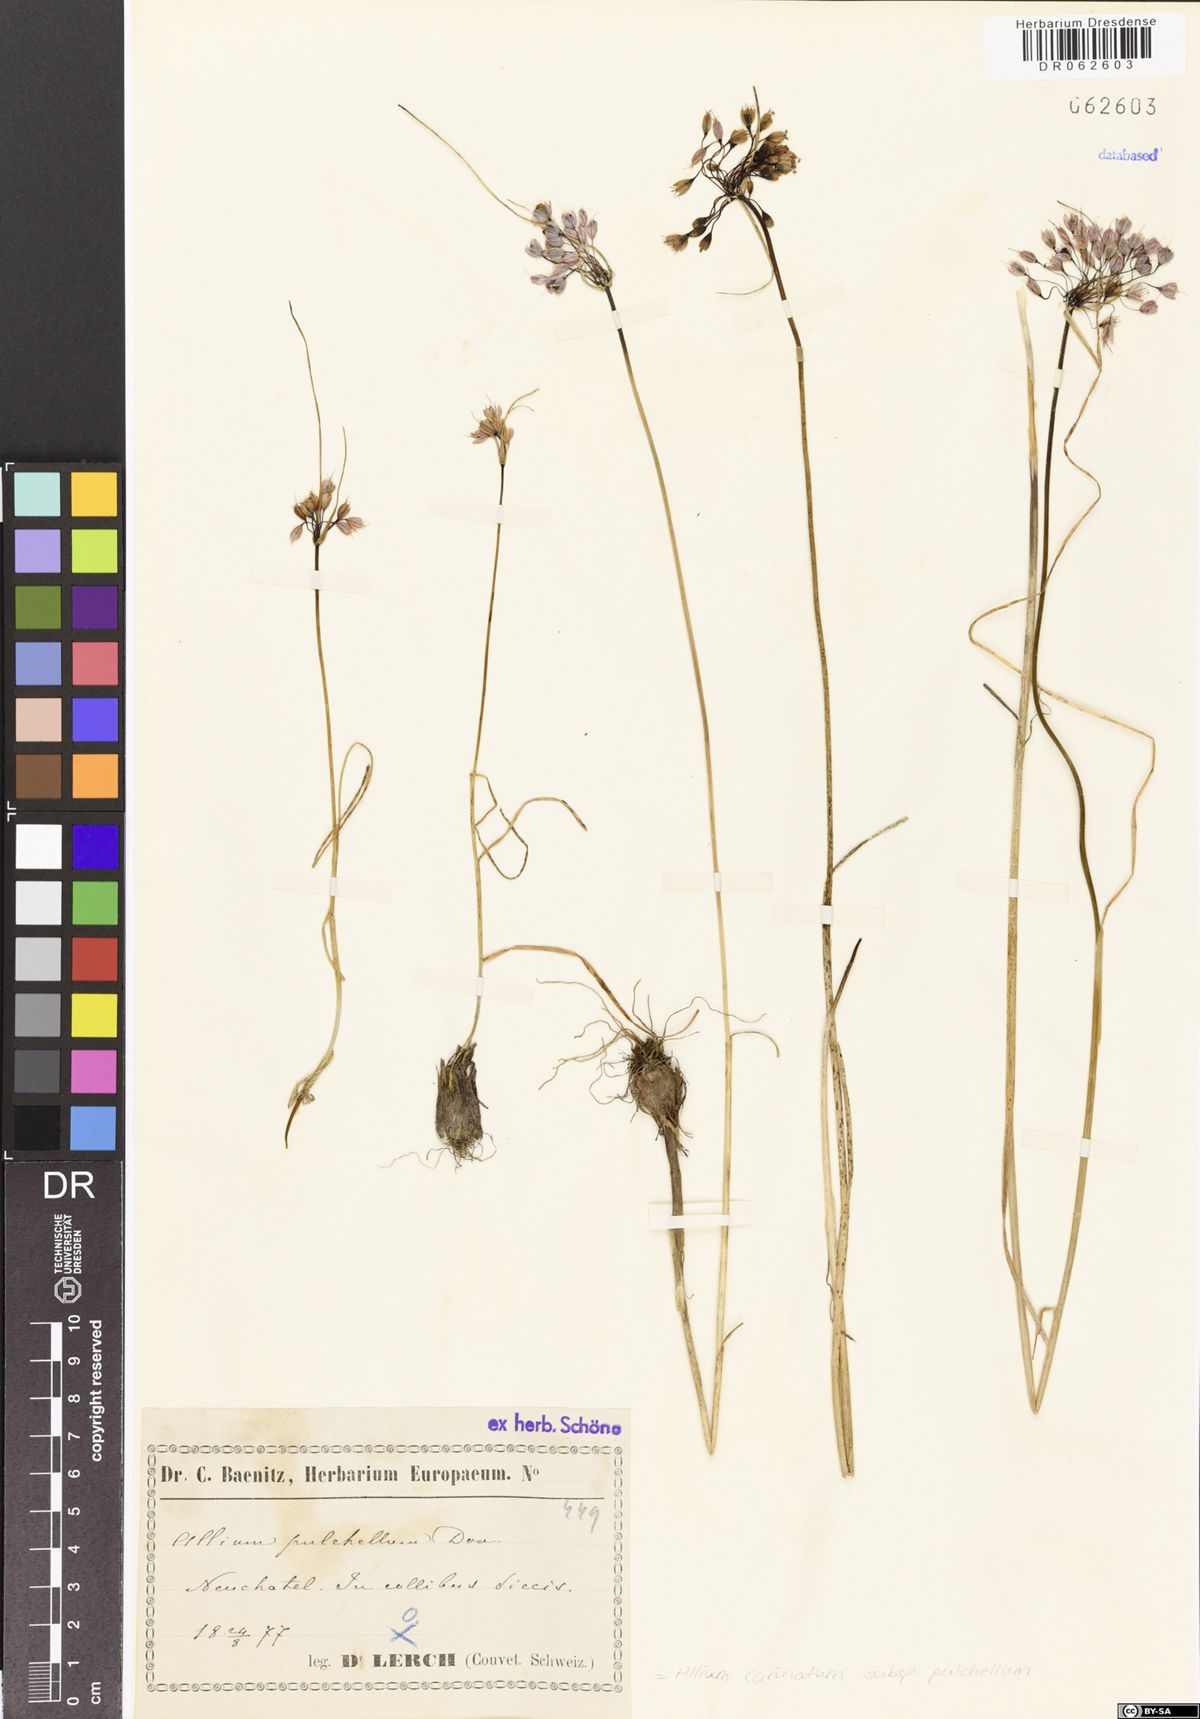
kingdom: Plantae
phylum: Tracheophyta
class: Liliopsida
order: Asparagales
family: Amaryllidaceae
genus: Allium
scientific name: Allium coloratum
